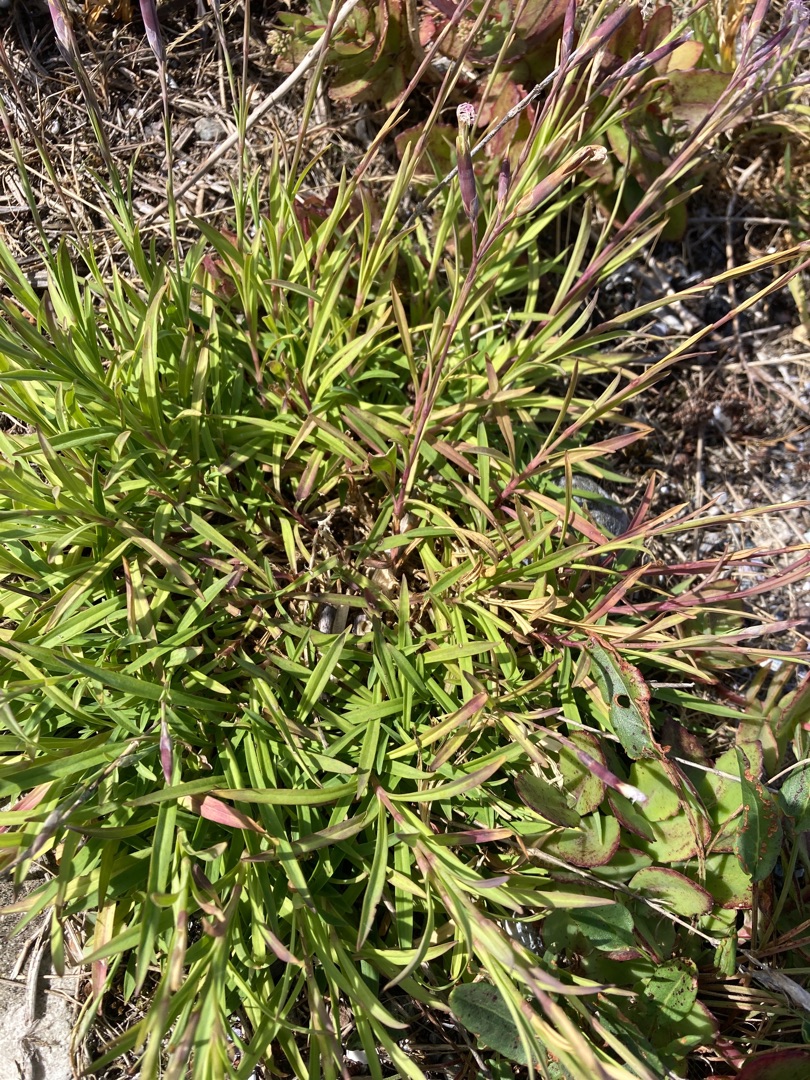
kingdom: Plantae
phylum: Tracheophyta
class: Magnoliopsida
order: Caryophyllales
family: Caryophyllaceae
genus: Dianthus
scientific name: Dianthus superbus
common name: Strand-nellike
